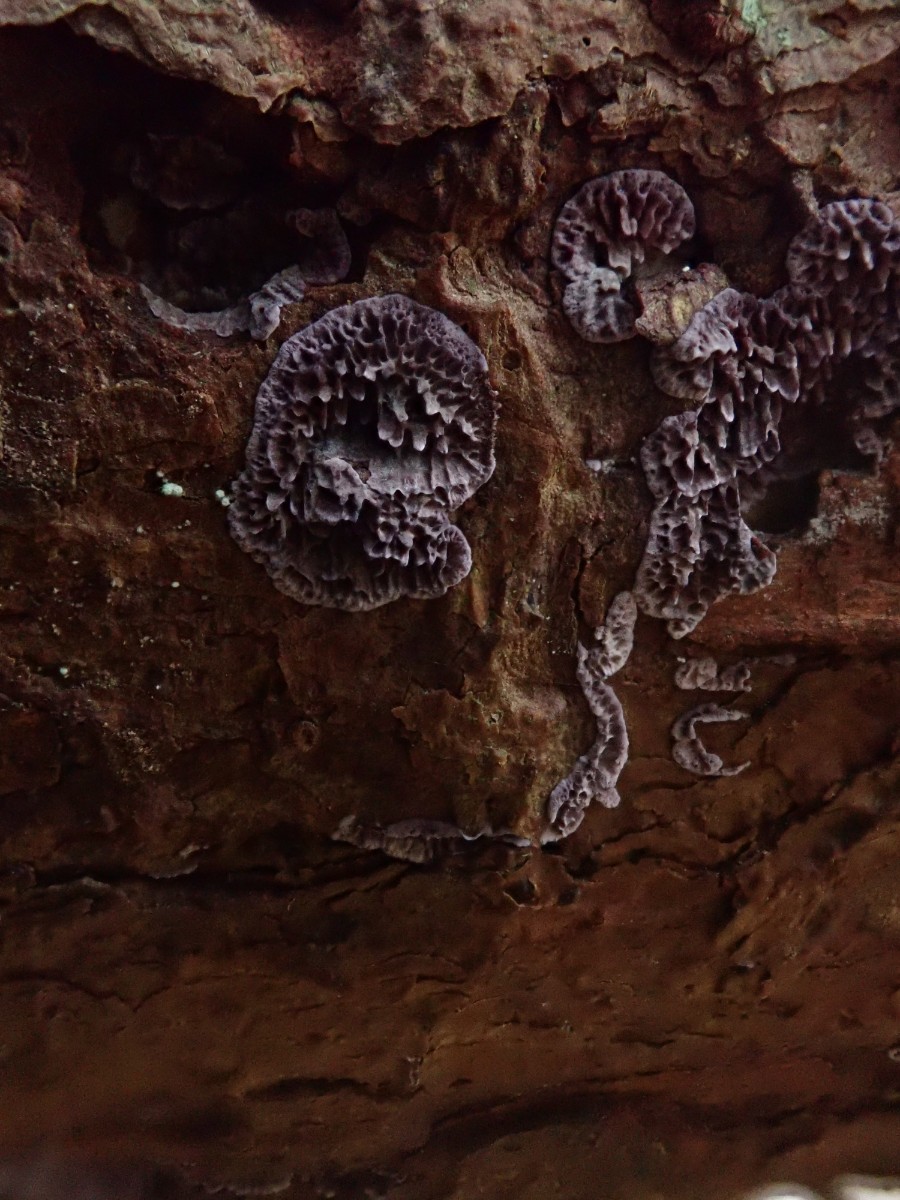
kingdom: Fungi
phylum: Basidiomycota
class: Agaricomycetes
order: Hymenochaetales
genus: Trichaptum
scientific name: Trichaptum fuscoviolaceum
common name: tandet violporesvamp
